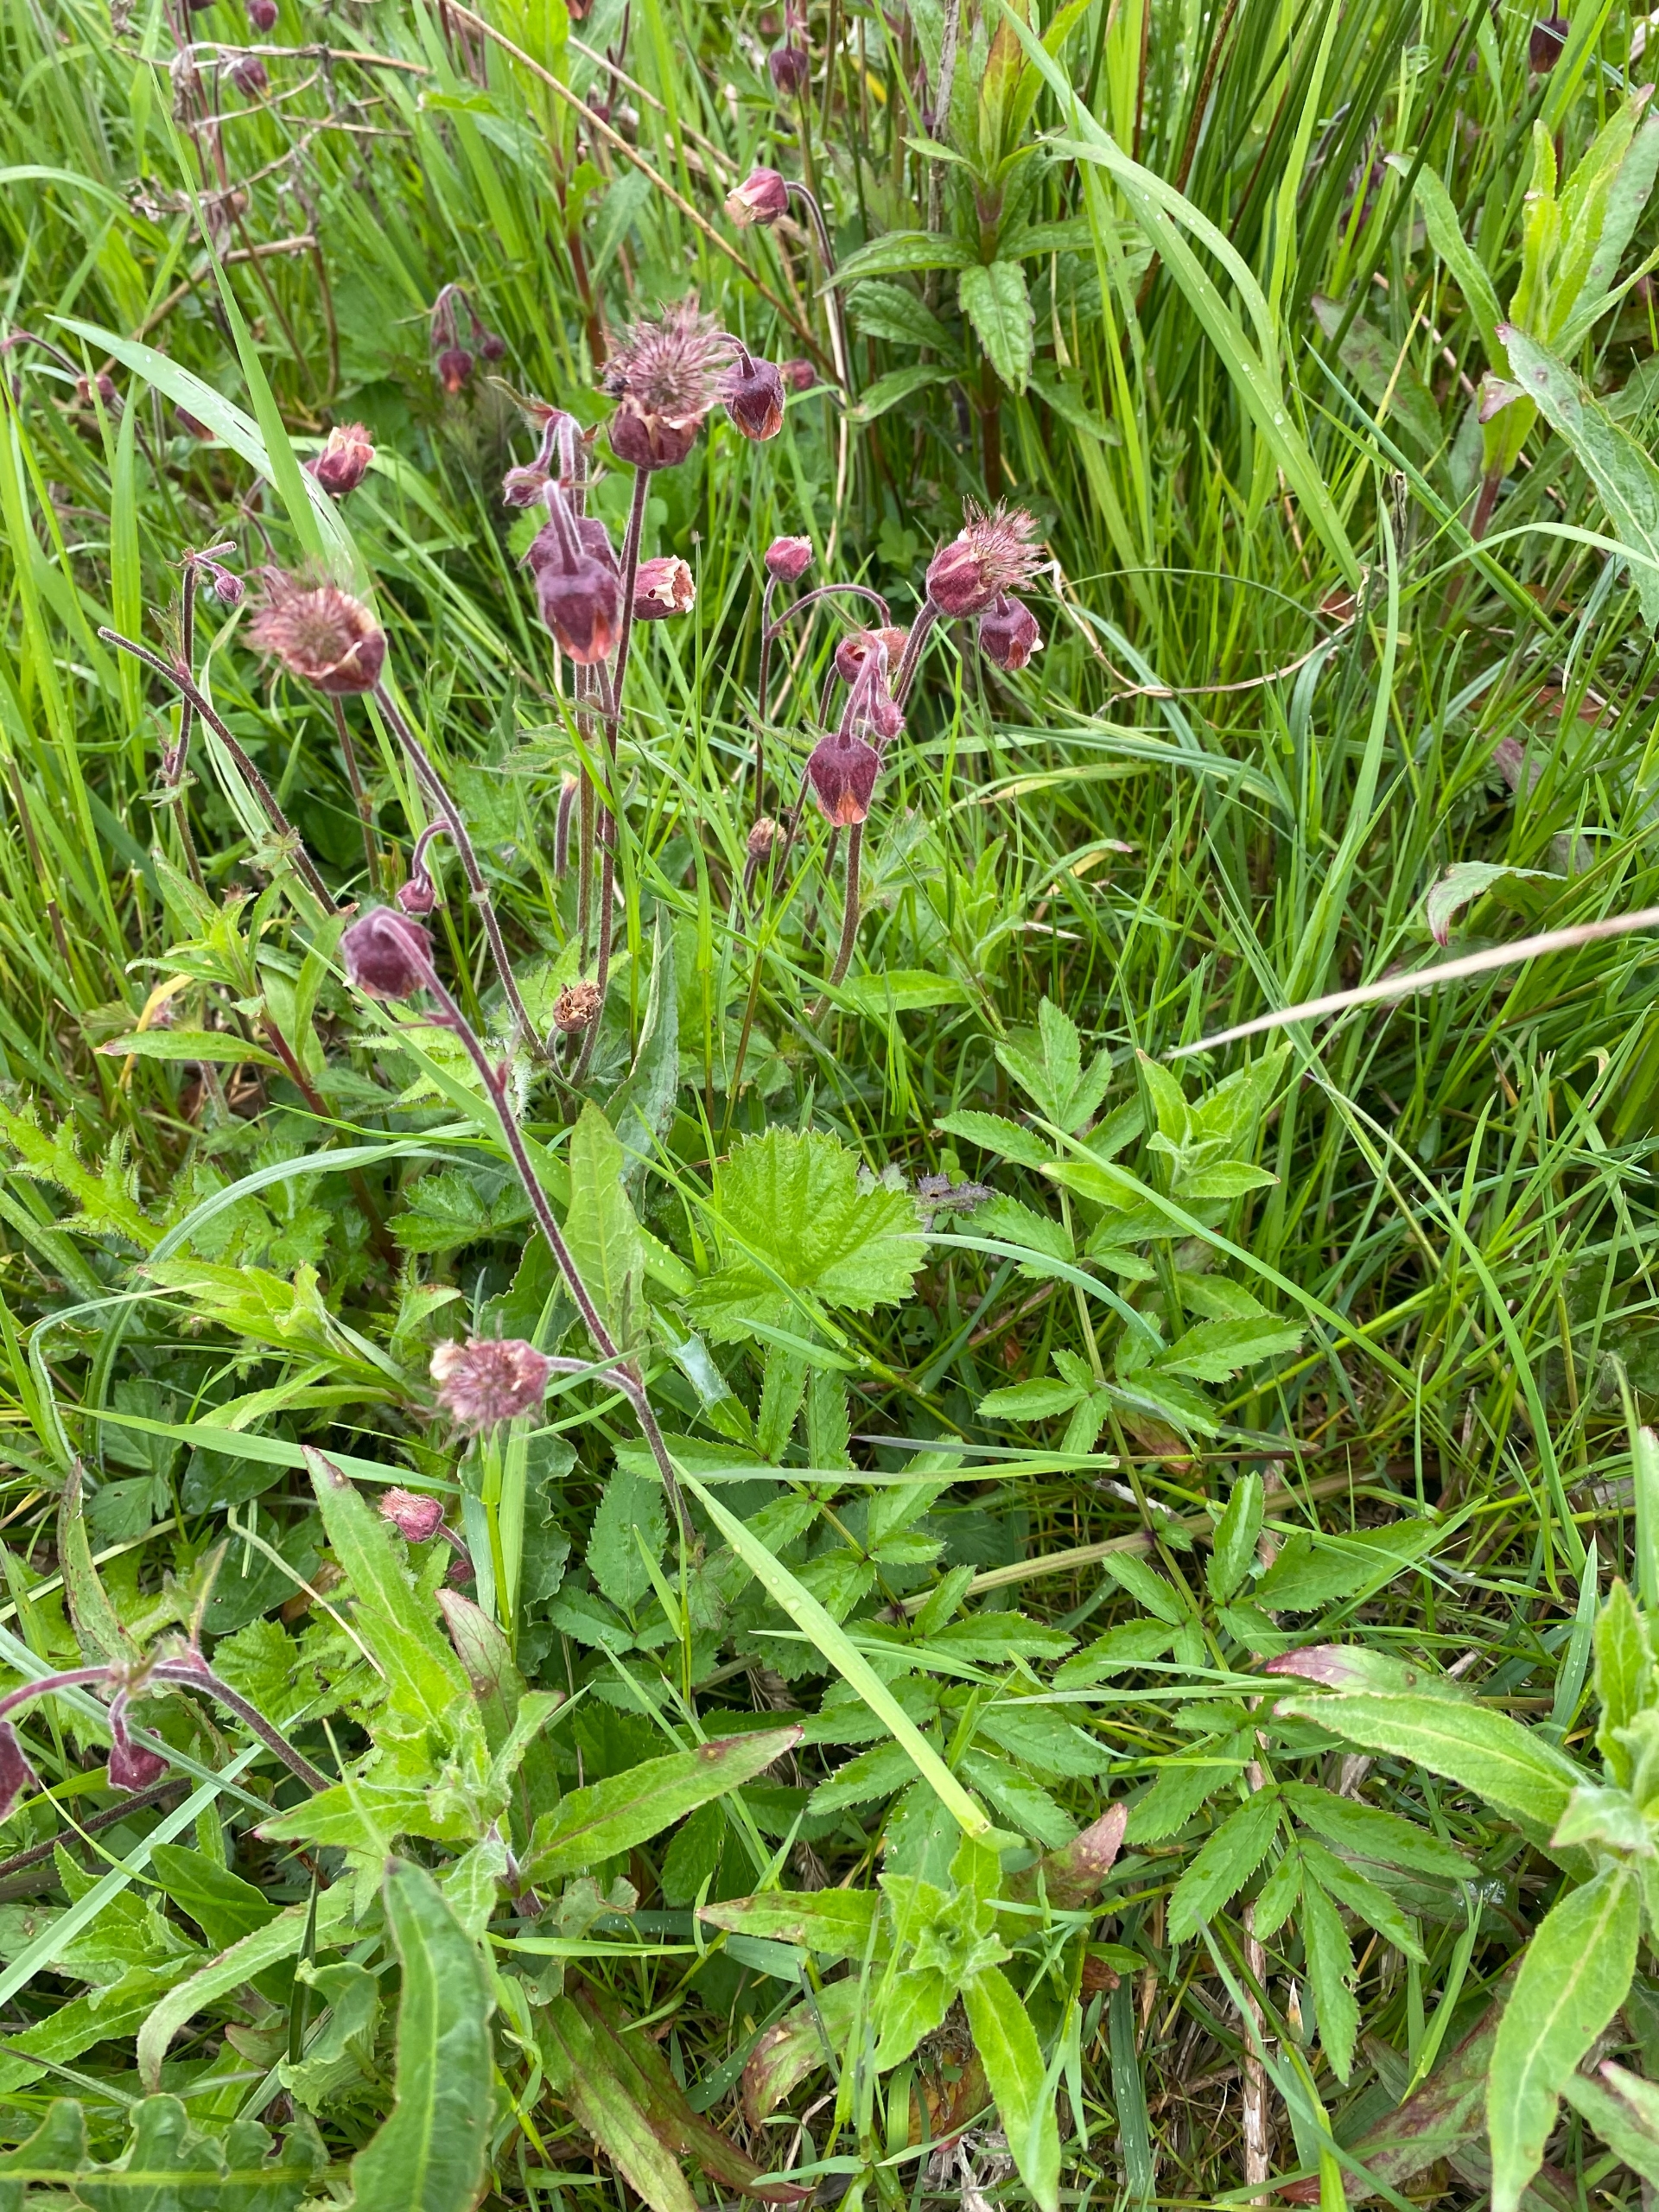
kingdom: Plantae
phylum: Tracheophyta
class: Magnoliopsida
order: Rosales
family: Rosaceae
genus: Geum
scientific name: Geum rivale
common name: Eng-nellikerod
